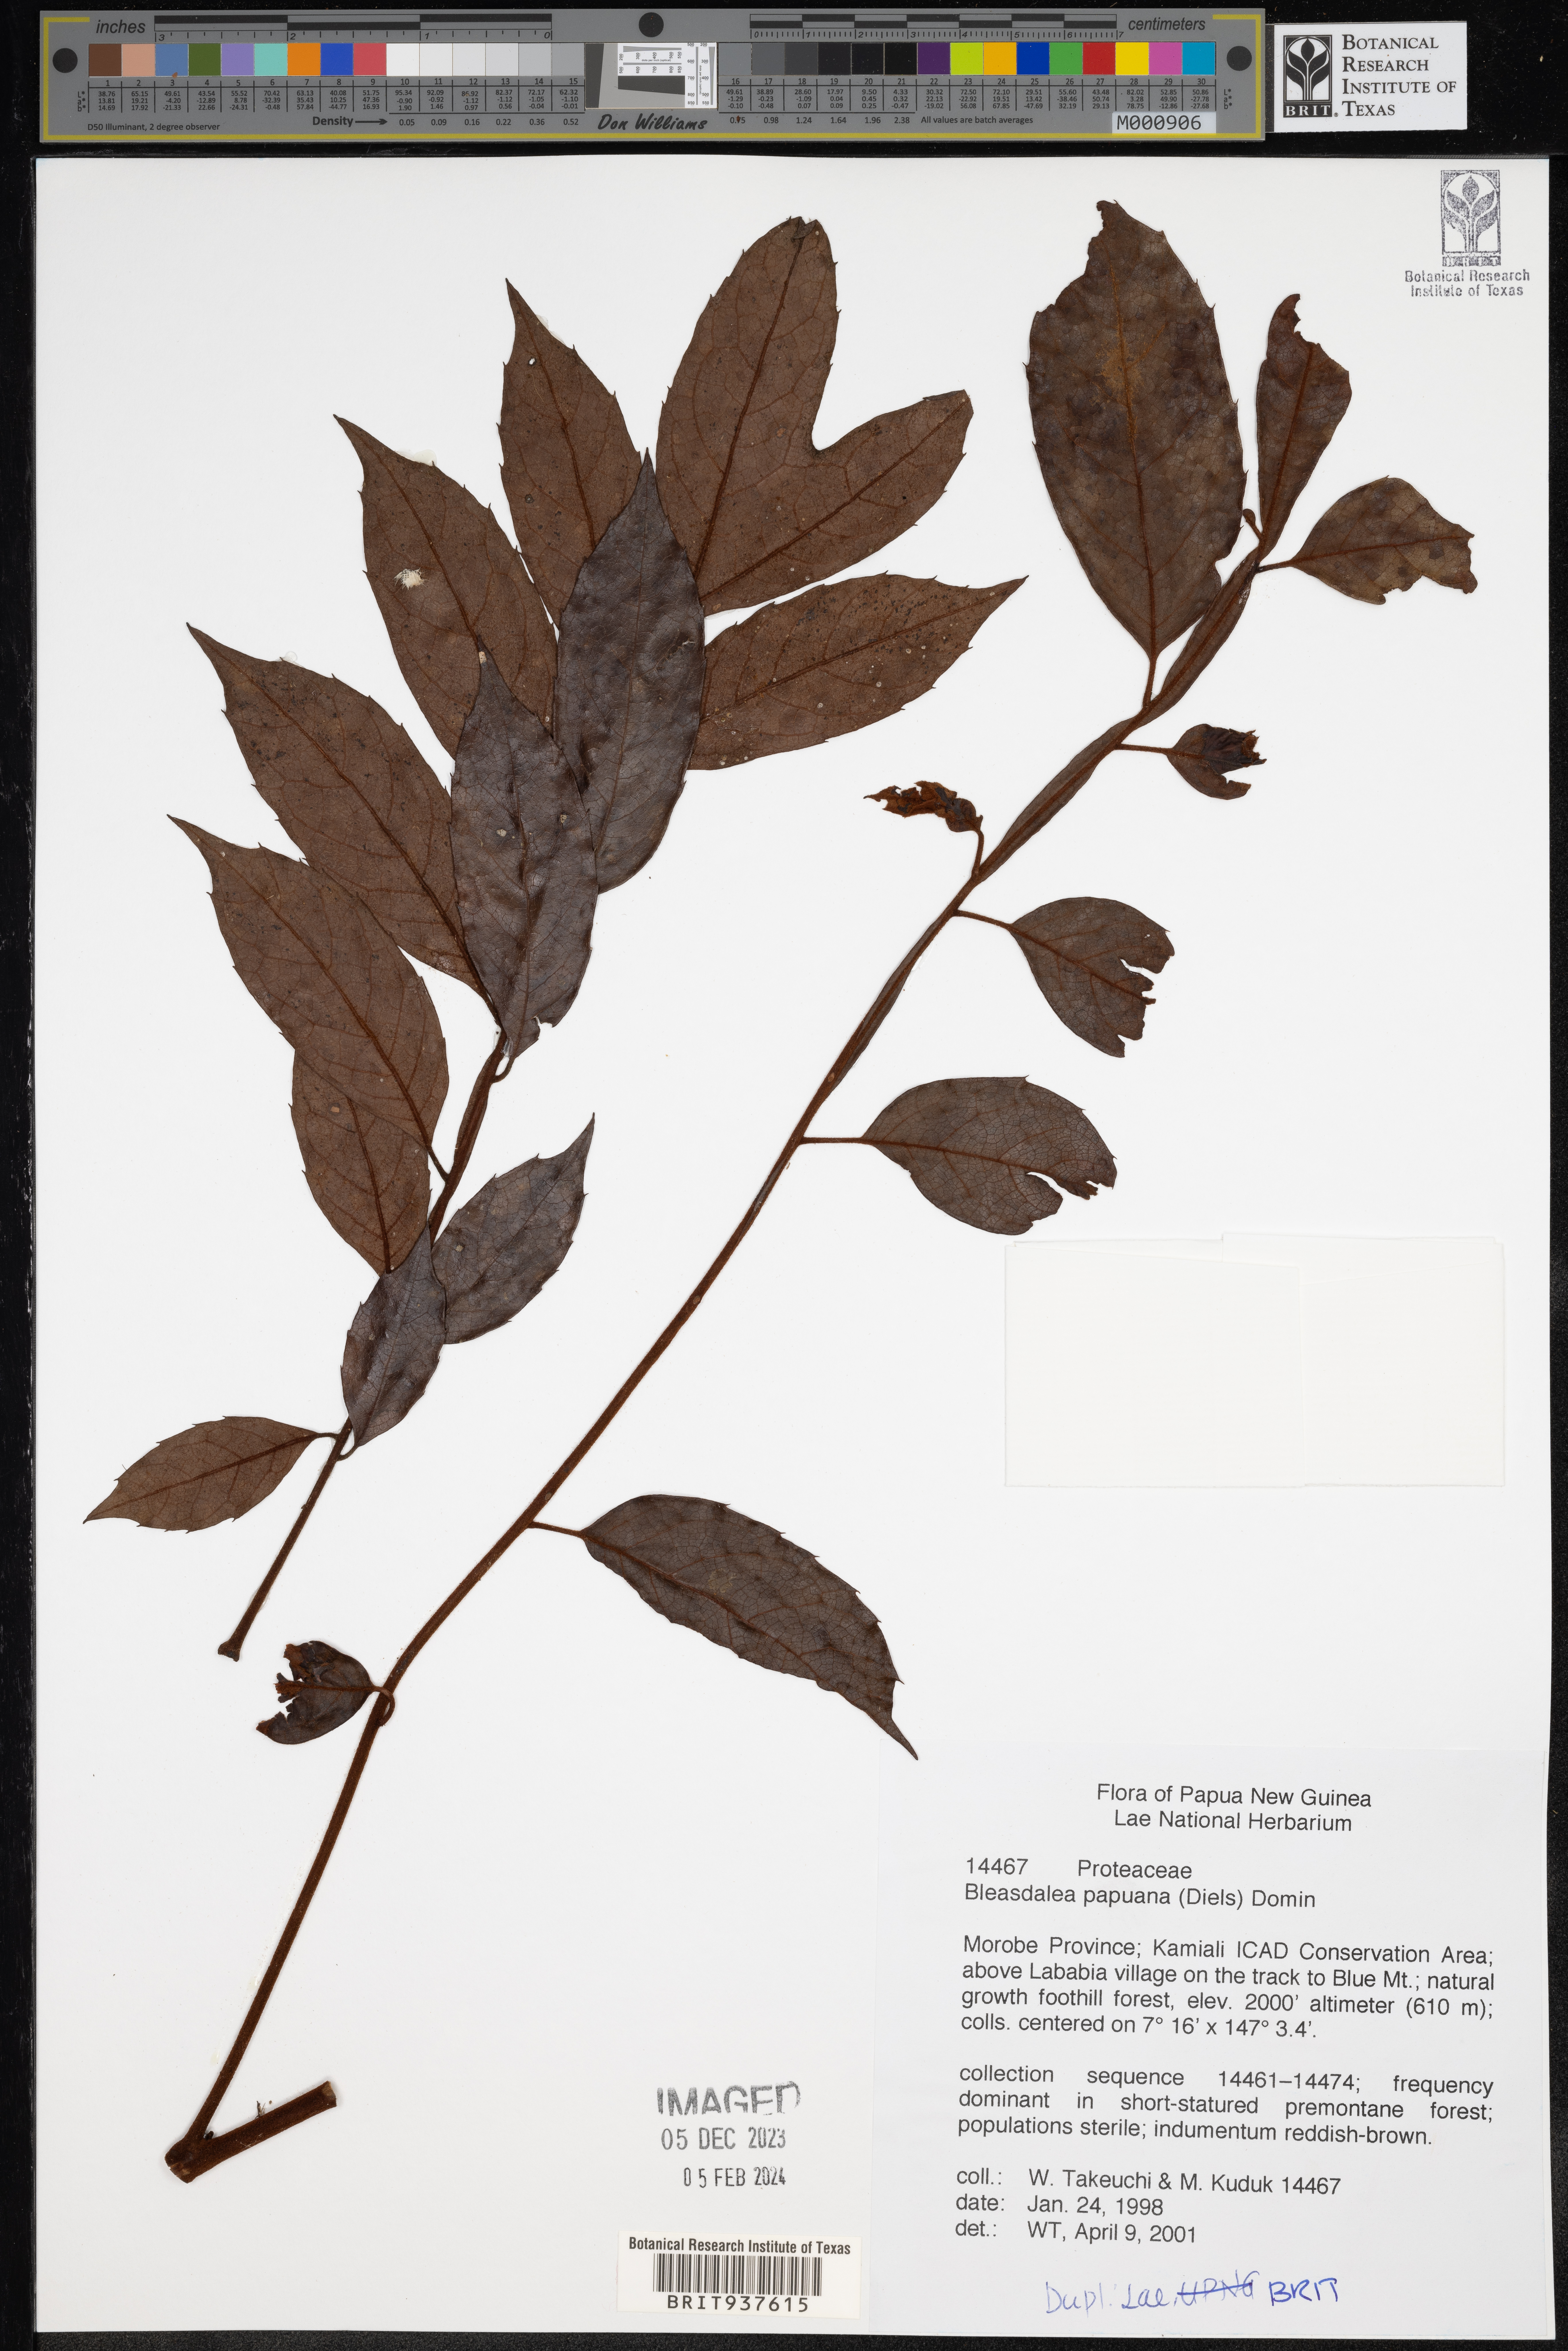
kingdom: Plantae
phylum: Tracheophyta
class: Magnoliopsida
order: Proteales
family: Proteaceae
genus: Bleasdalea
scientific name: Bleasdalea
